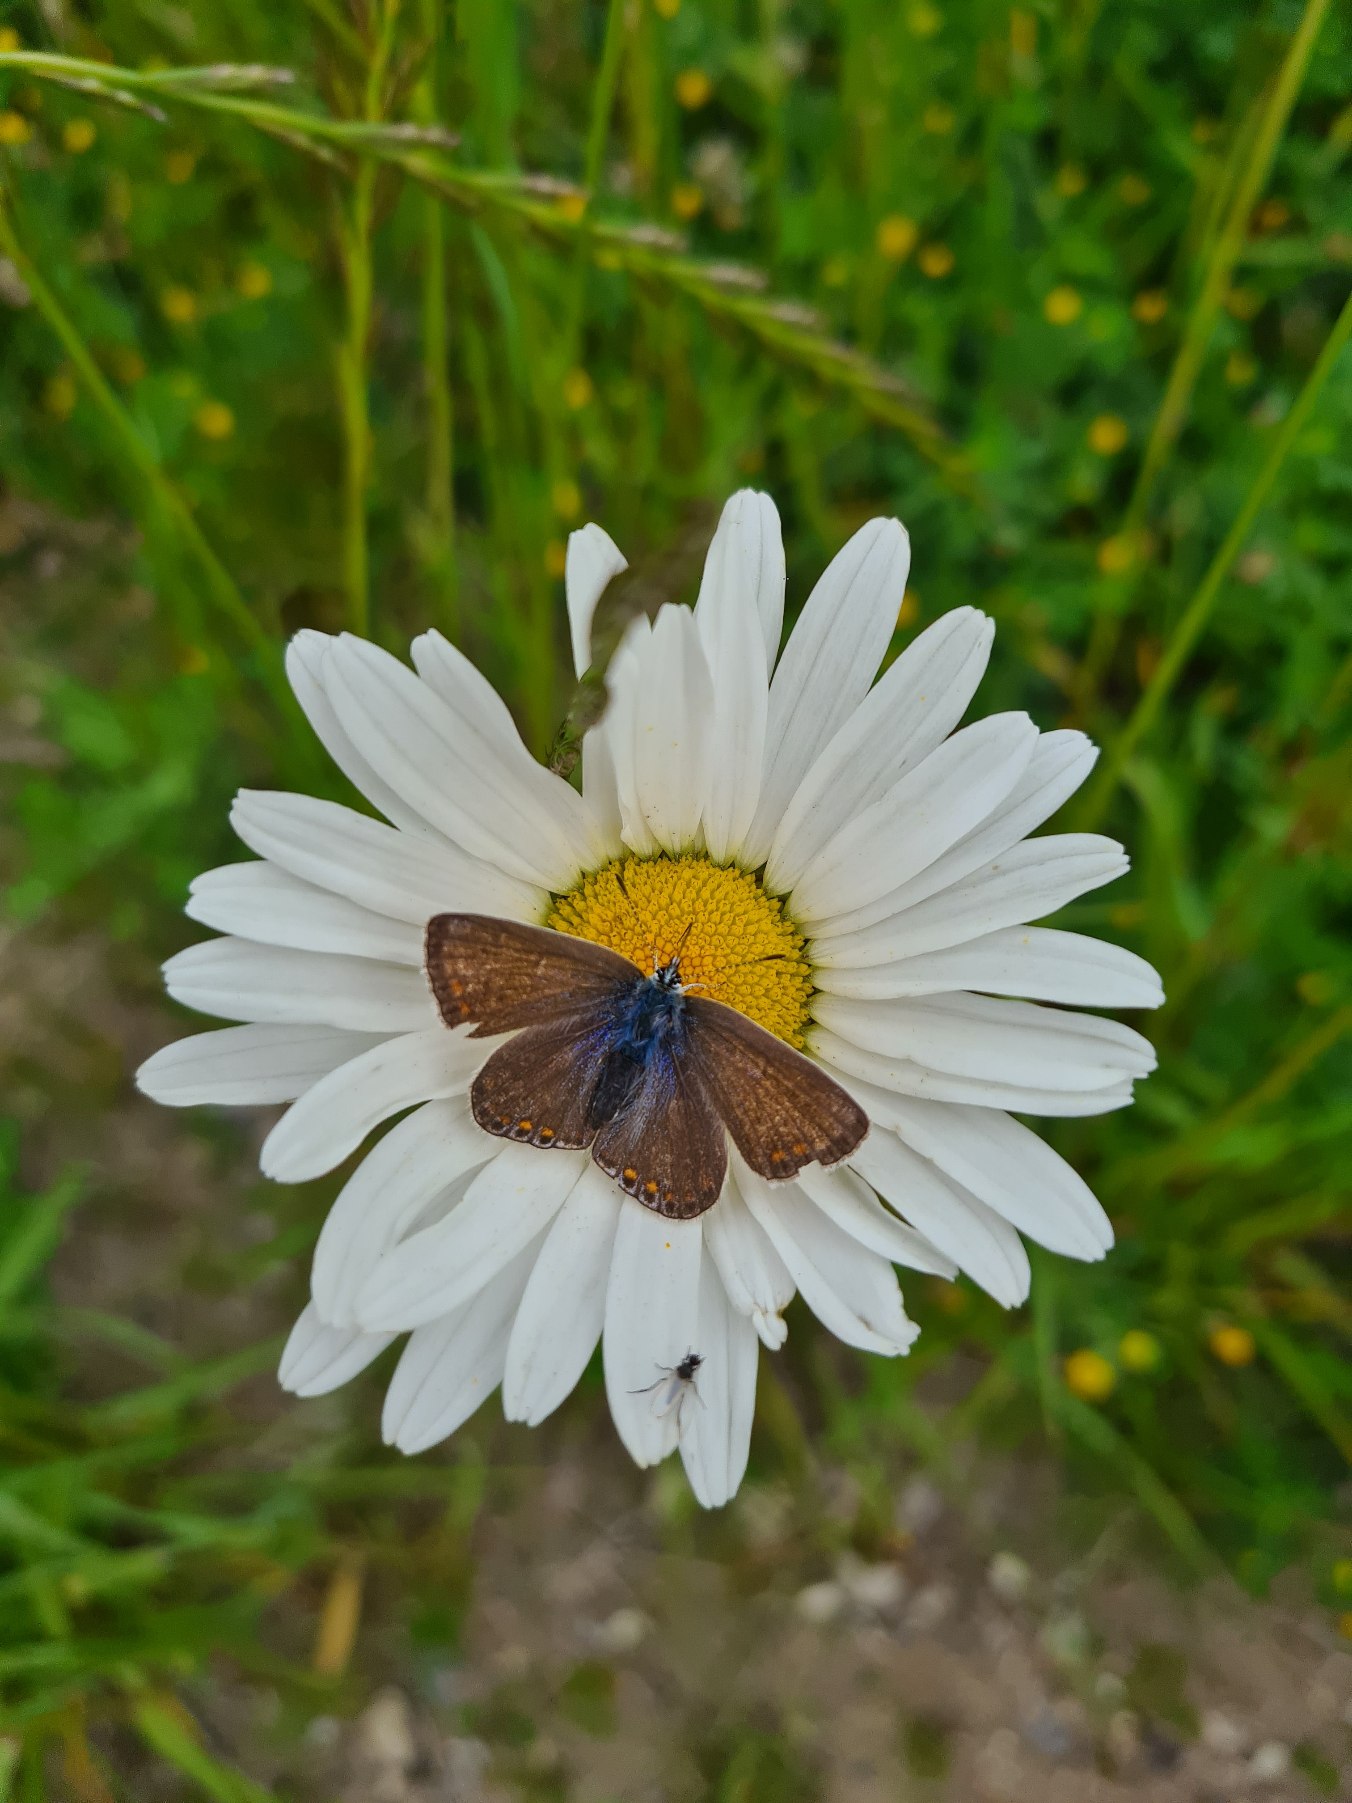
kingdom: Animalia
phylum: Arthropoda
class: Insecta
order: Lepidoptera
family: Lycaenidae
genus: Polyommatus
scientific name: Polyommatus icarus
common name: Almindelig blåfugl
